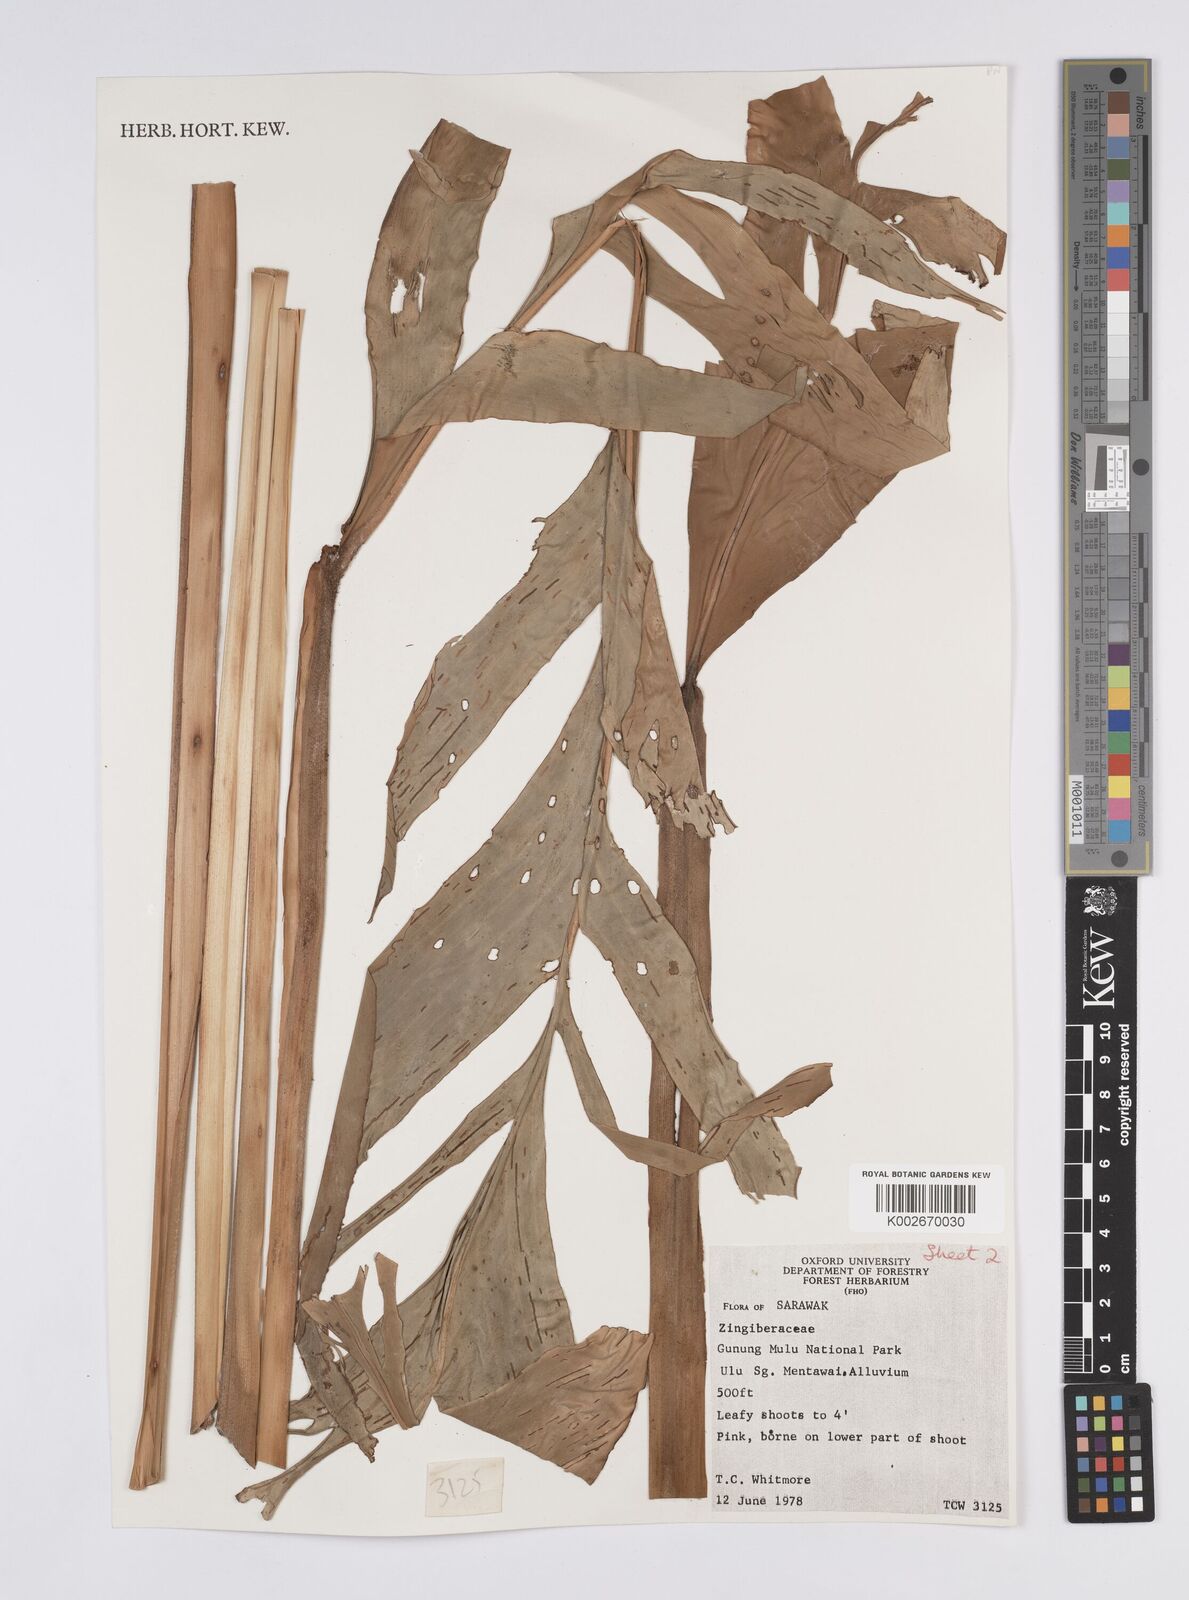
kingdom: Plantae
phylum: Tracheophyta
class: Liliopsida
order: Zingiberales
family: Zingiberaceae
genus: Plagiostachys
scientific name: Plagiostachys
